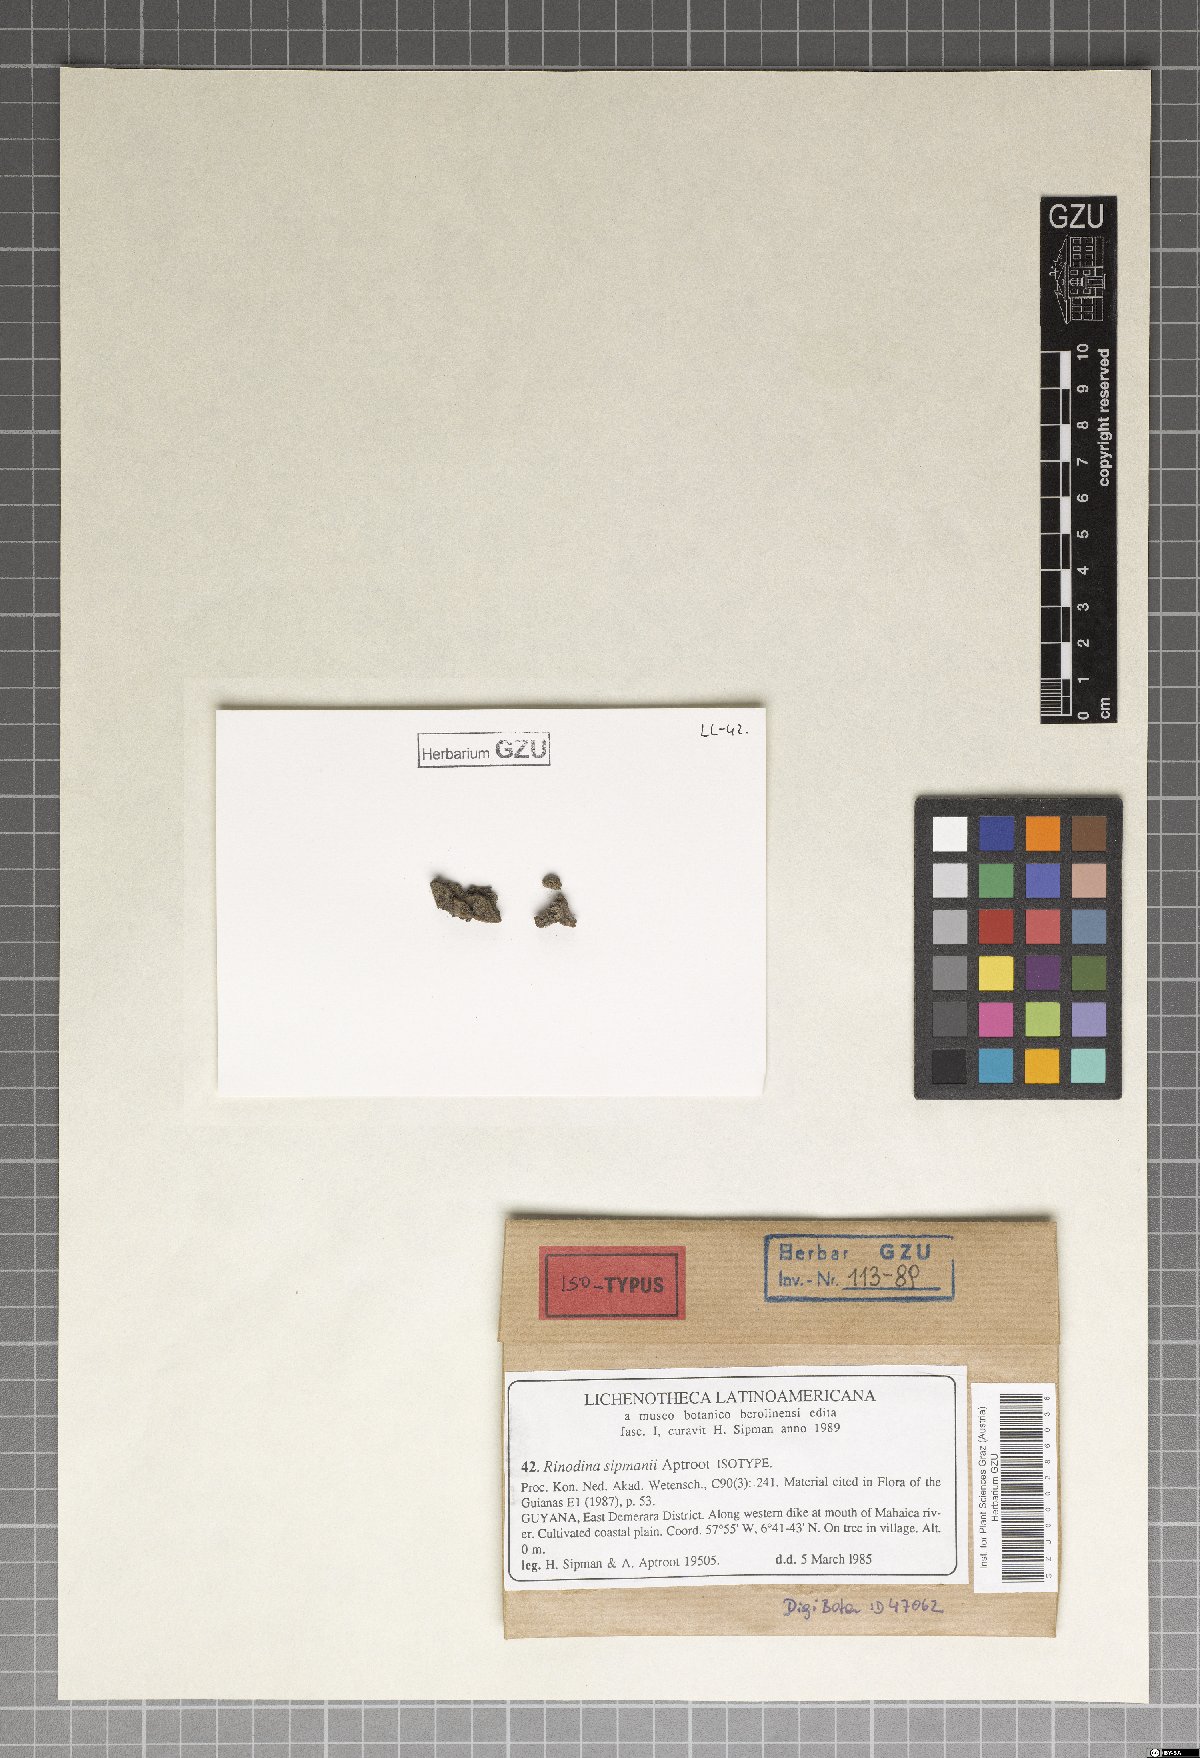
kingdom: Fungi
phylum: Ascomycota
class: Lecanoromycetes
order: Caliciales
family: Physciaceae
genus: Rinodina
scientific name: Rinodina sipmanii
